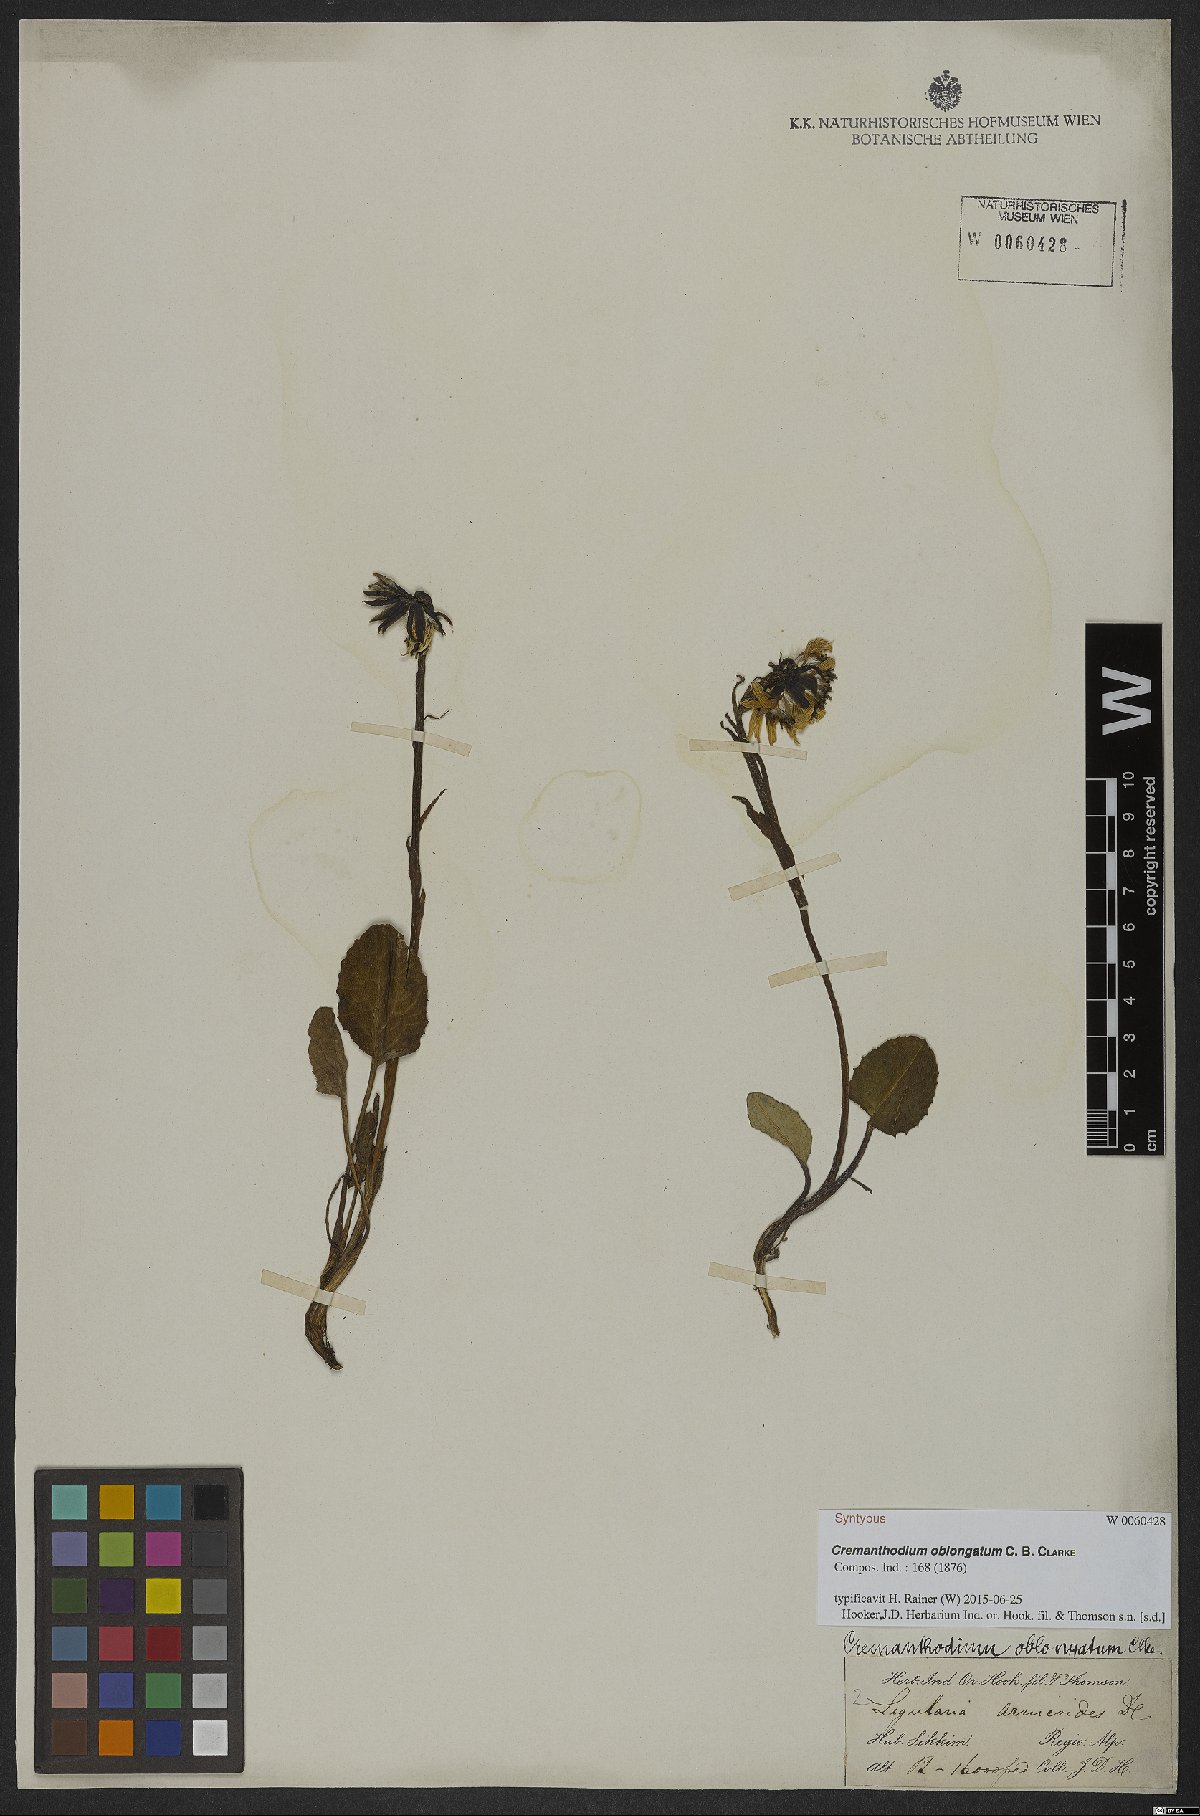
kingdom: Plantae
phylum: Tracheophyta
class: Magnoliopsida
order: Asterales
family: Asteraceae
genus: Cremanthodium
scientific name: Cremanthodium oblongatum
